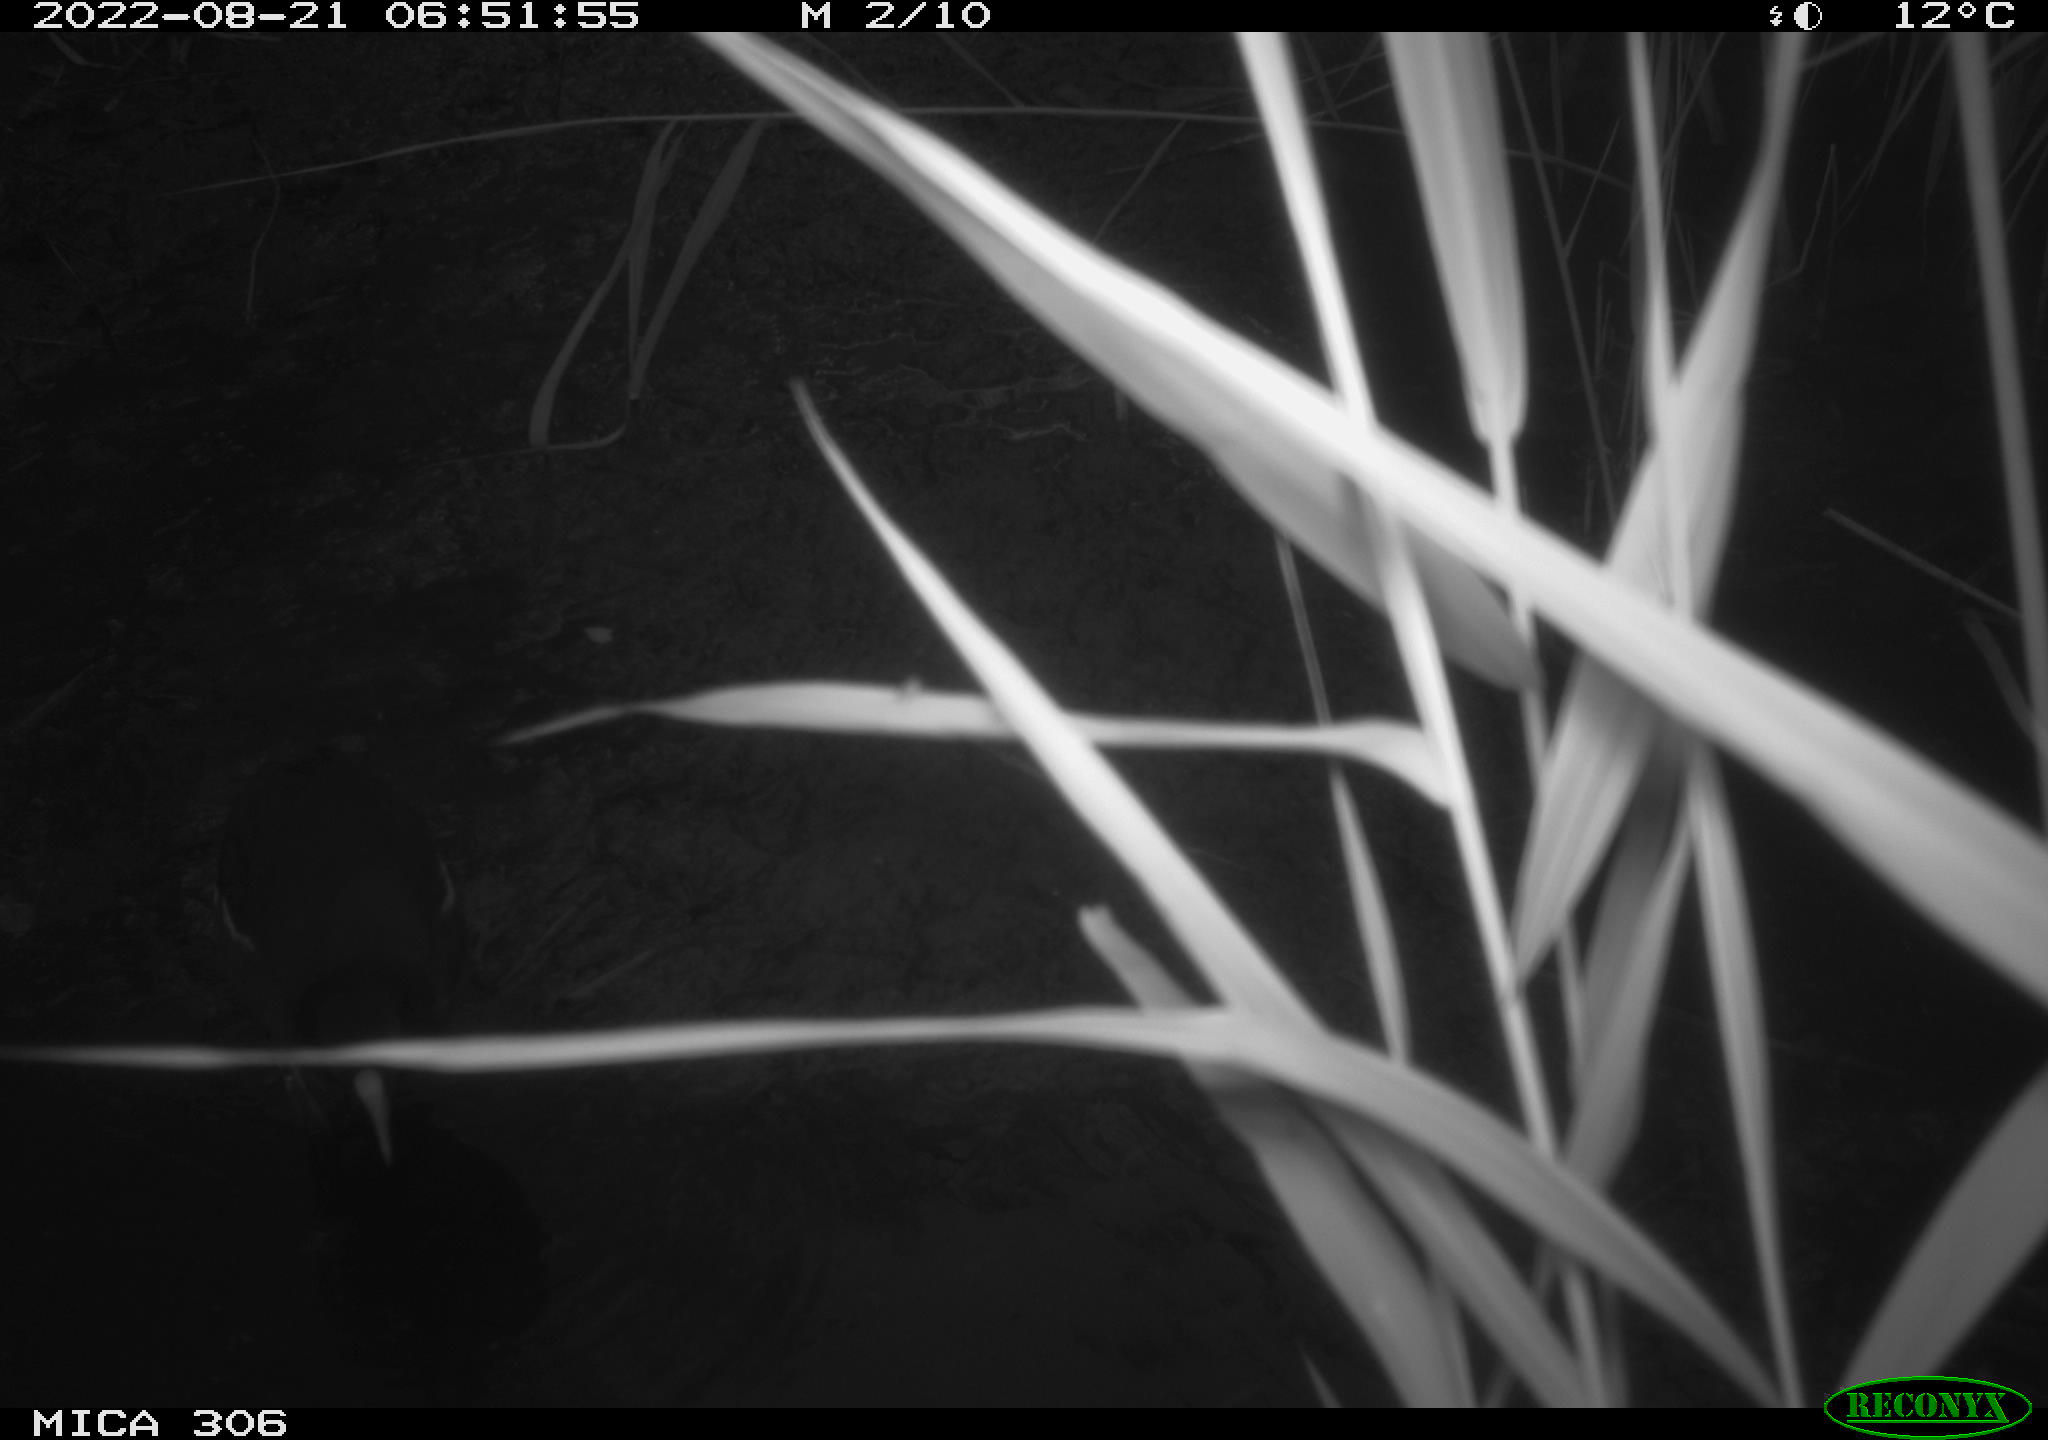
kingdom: Animalia
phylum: Chordata
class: Aves
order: Gruiformes
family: Rallidae
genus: Gallinula
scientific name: Gallinula chloropus
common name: Common moorhen
